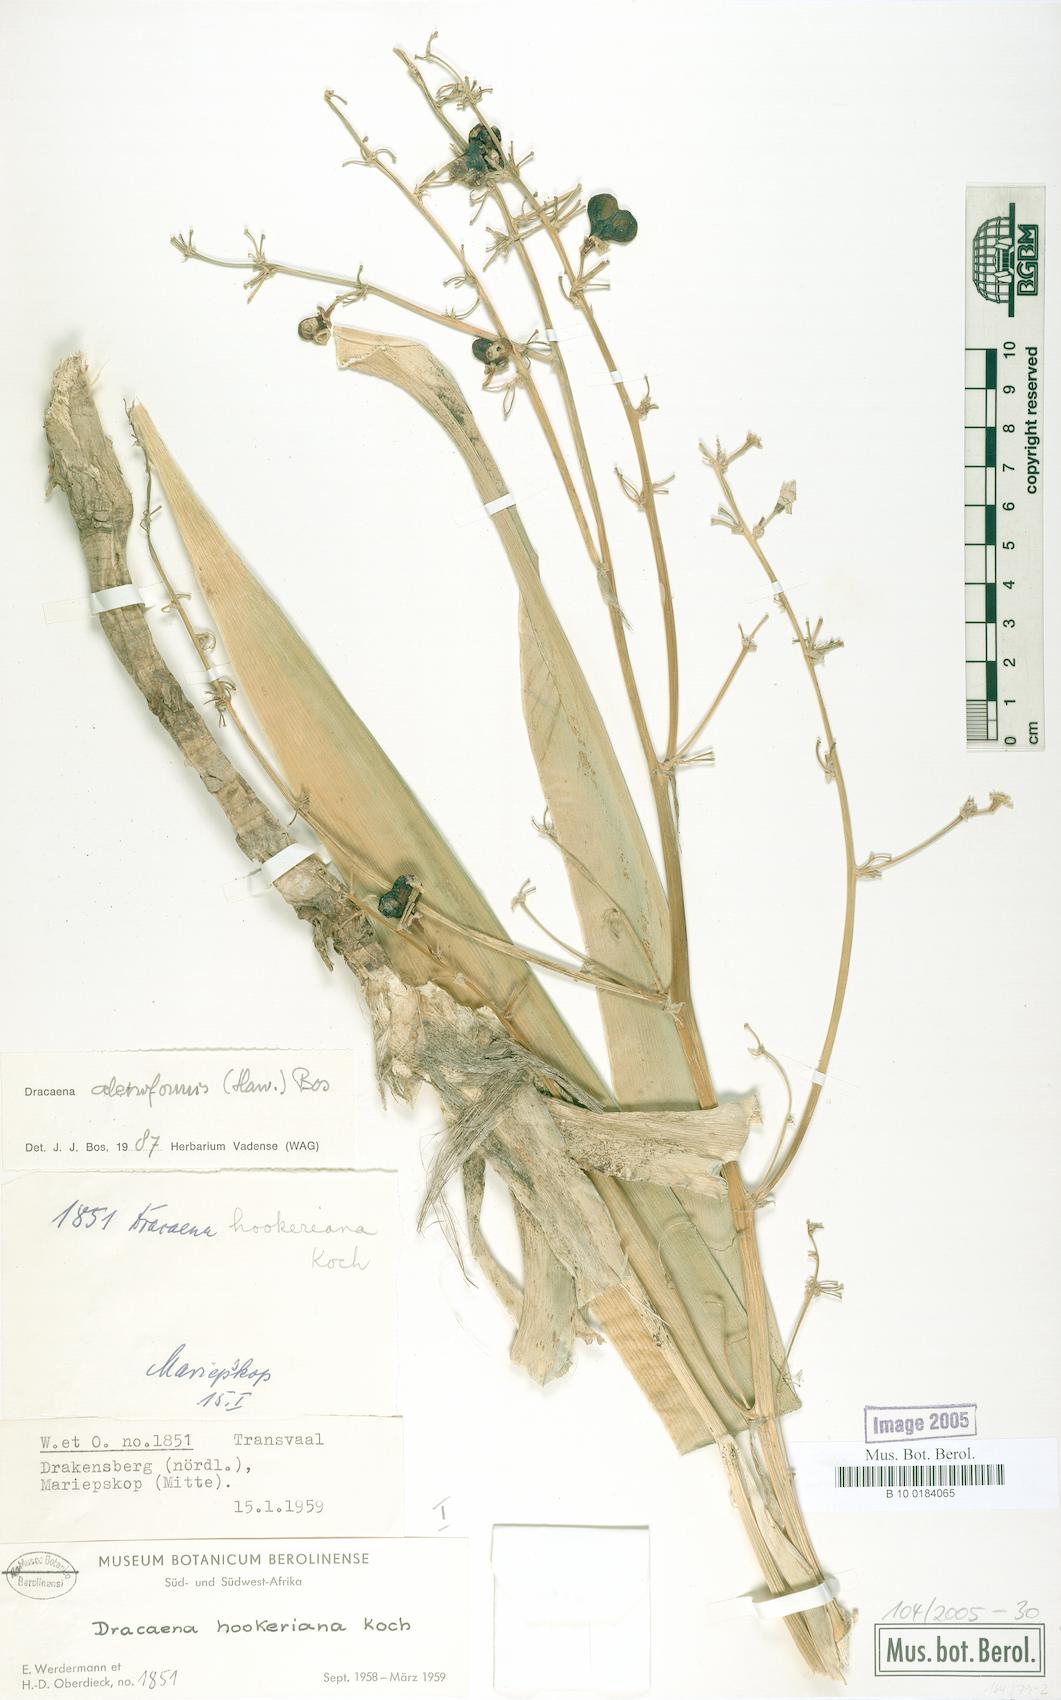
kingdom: Plantae
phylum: Tracheophyta
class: Liliopsida
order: Asparagales
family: Asparagaceae
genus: Dracaena
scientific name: Dracaena aletriformis
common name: Large-leaved dragon tree
